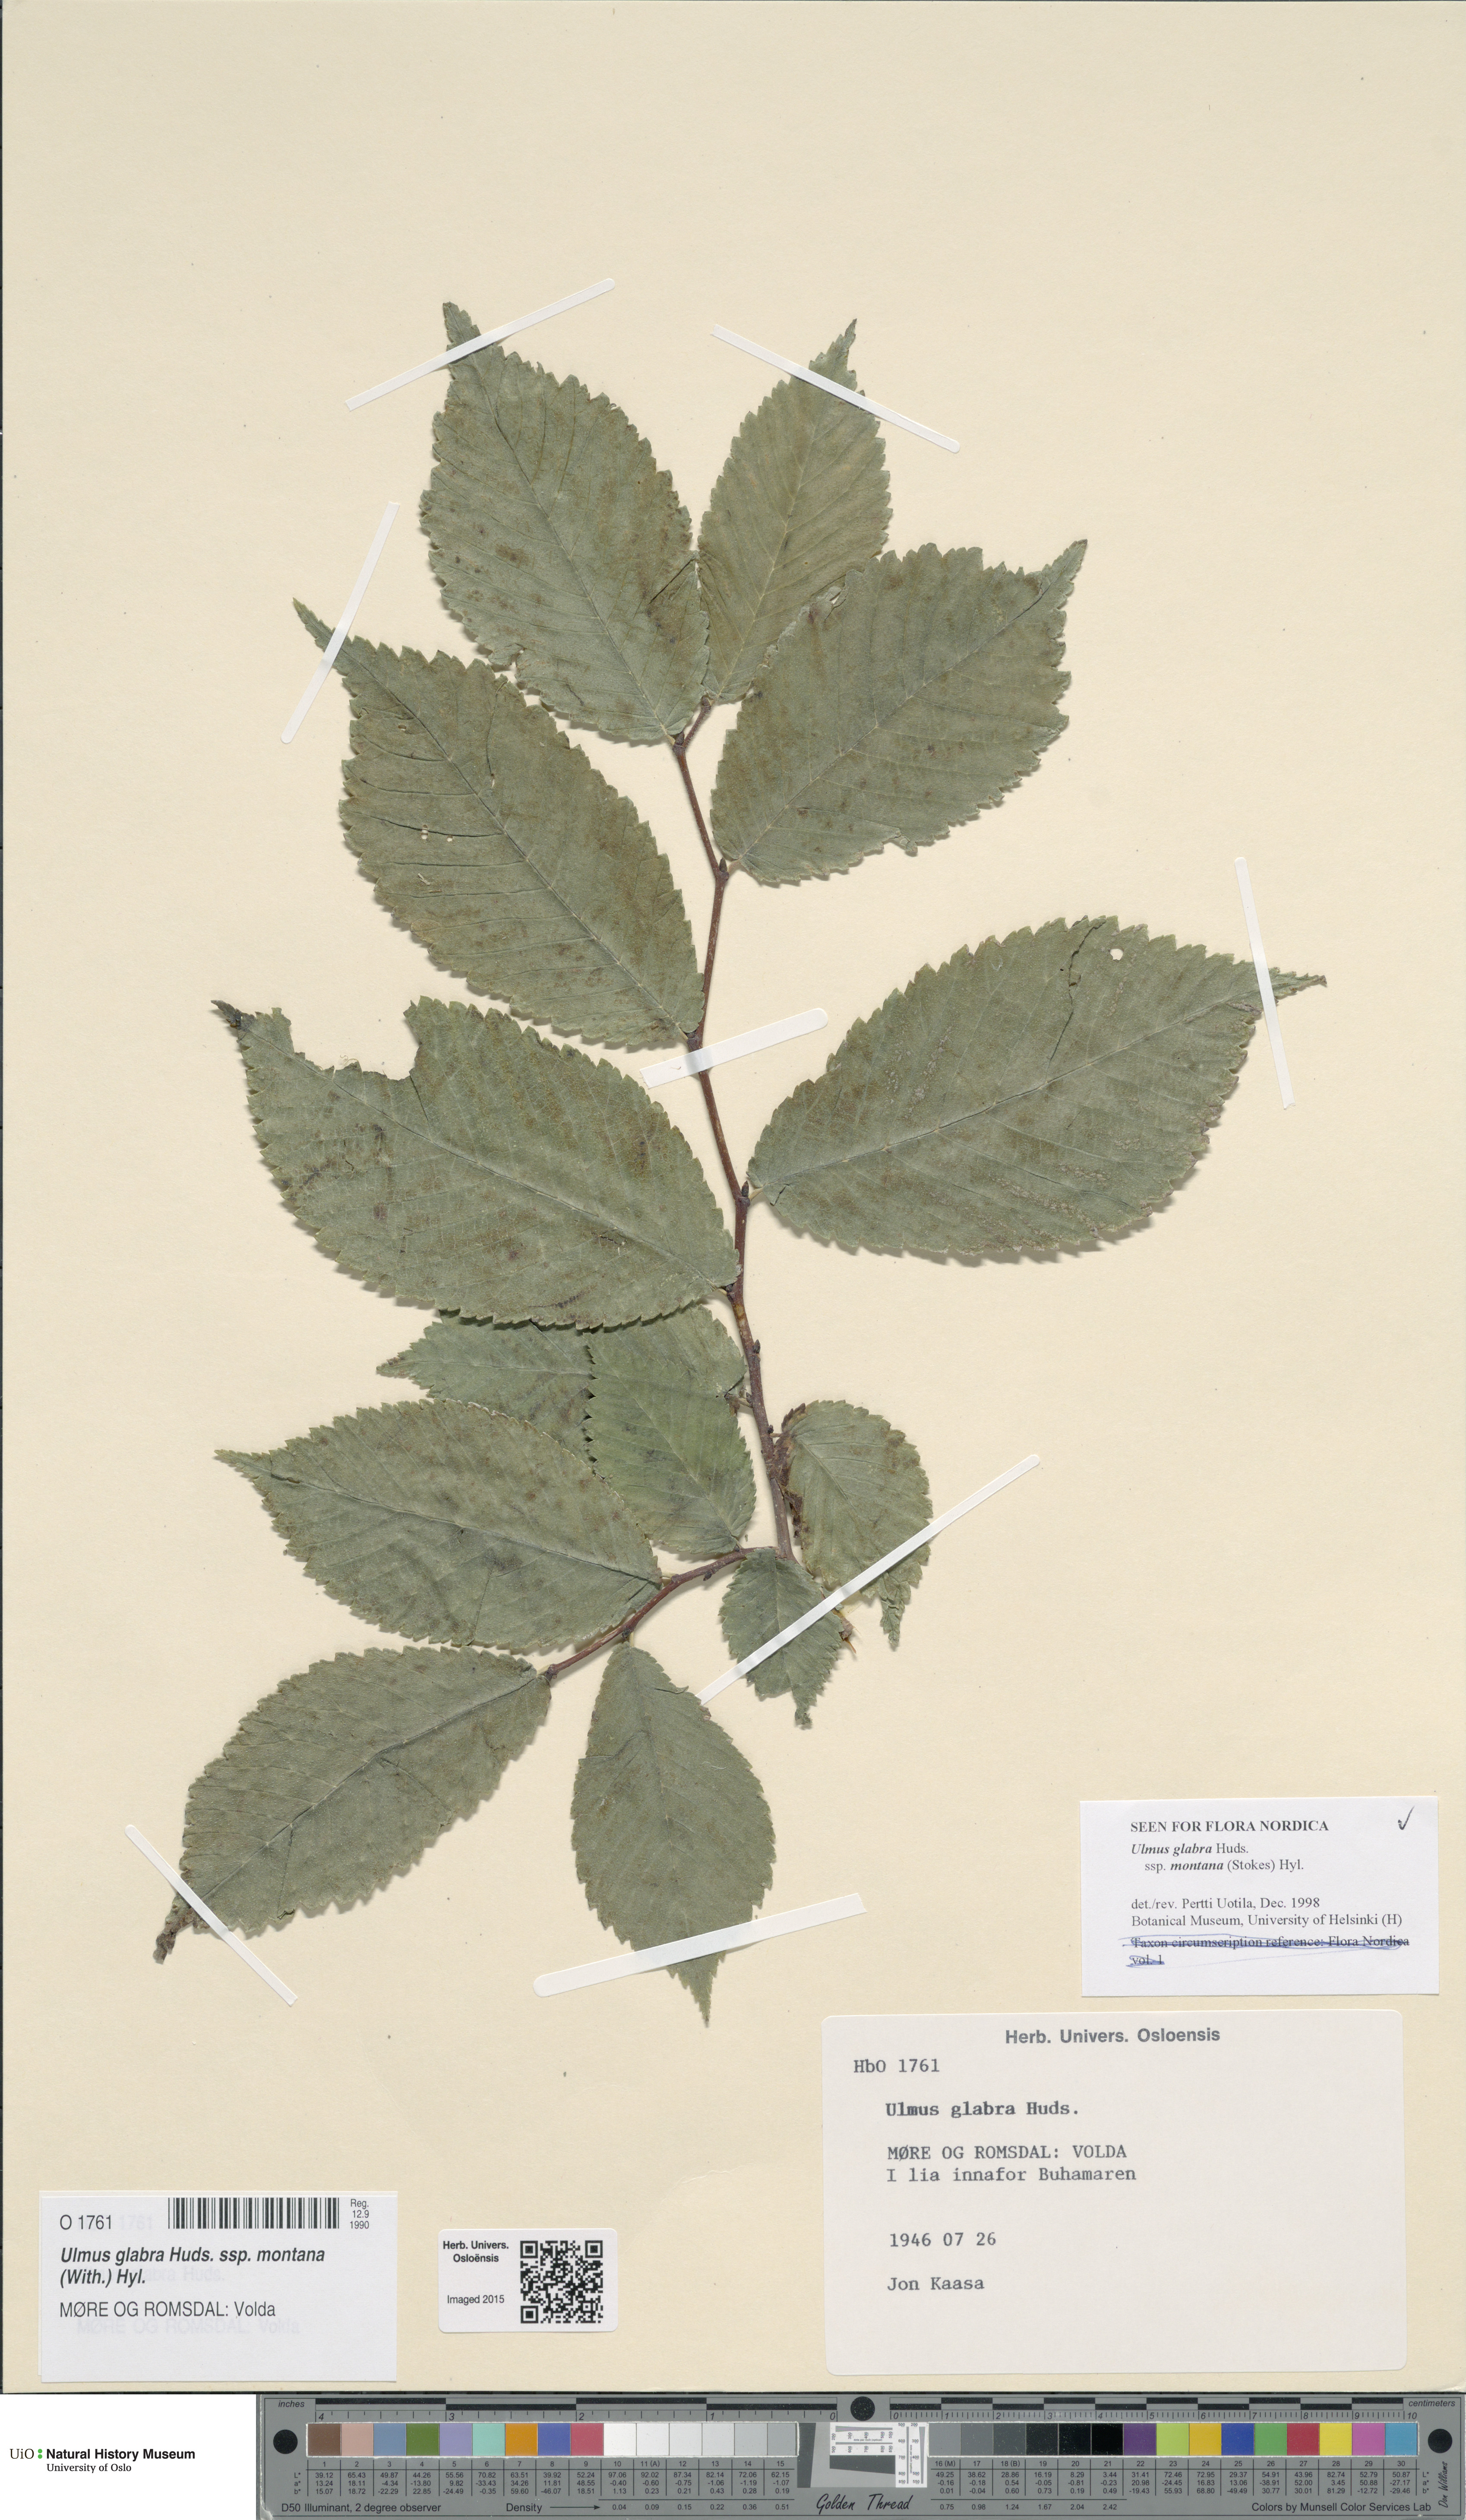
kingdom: Plantae
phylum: Tracheophyta
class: Magnoliopsida
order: Rosales
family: Ulmaceae
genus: Ulmus
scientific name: Ulmus glabra
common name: Wych elm
